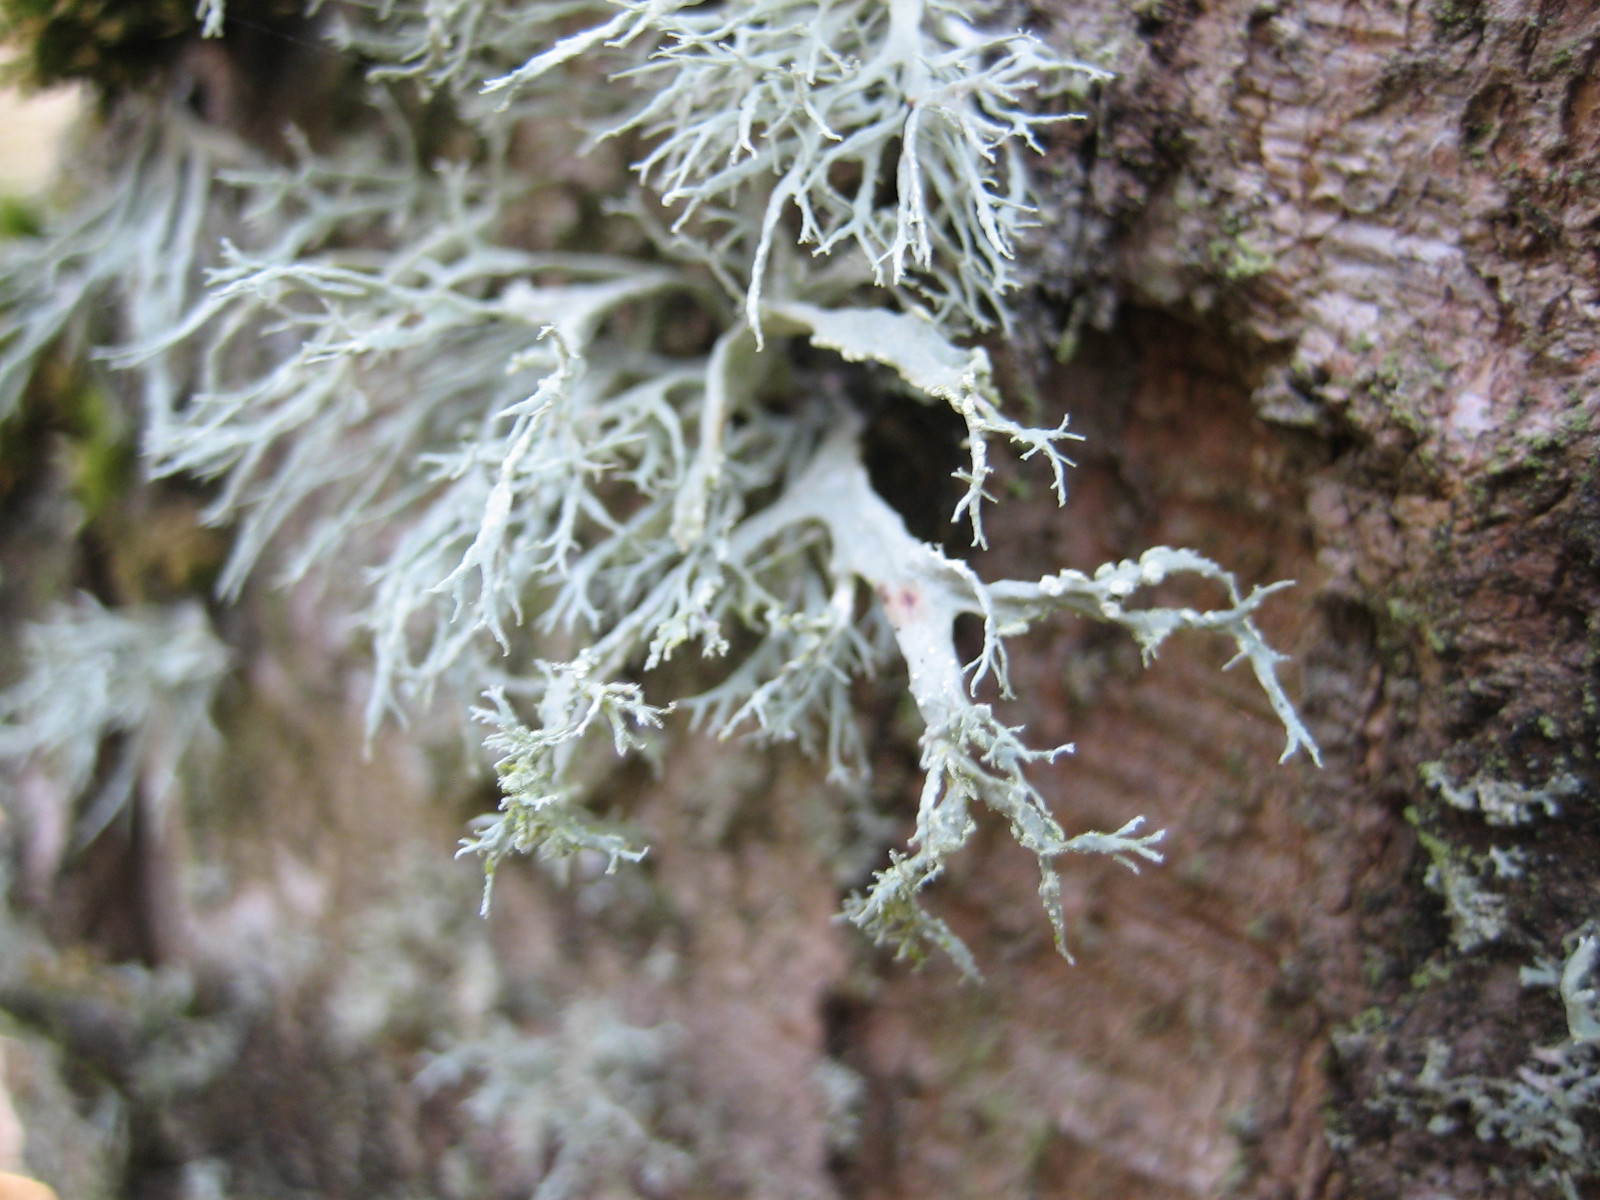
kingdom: Fungi
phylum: Ascomycota
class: Lecanoromycetes
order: Lecanorales
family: Ramalinaceae
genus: Ramalina
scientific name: Ramalina farinacea
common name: melet grenlav
